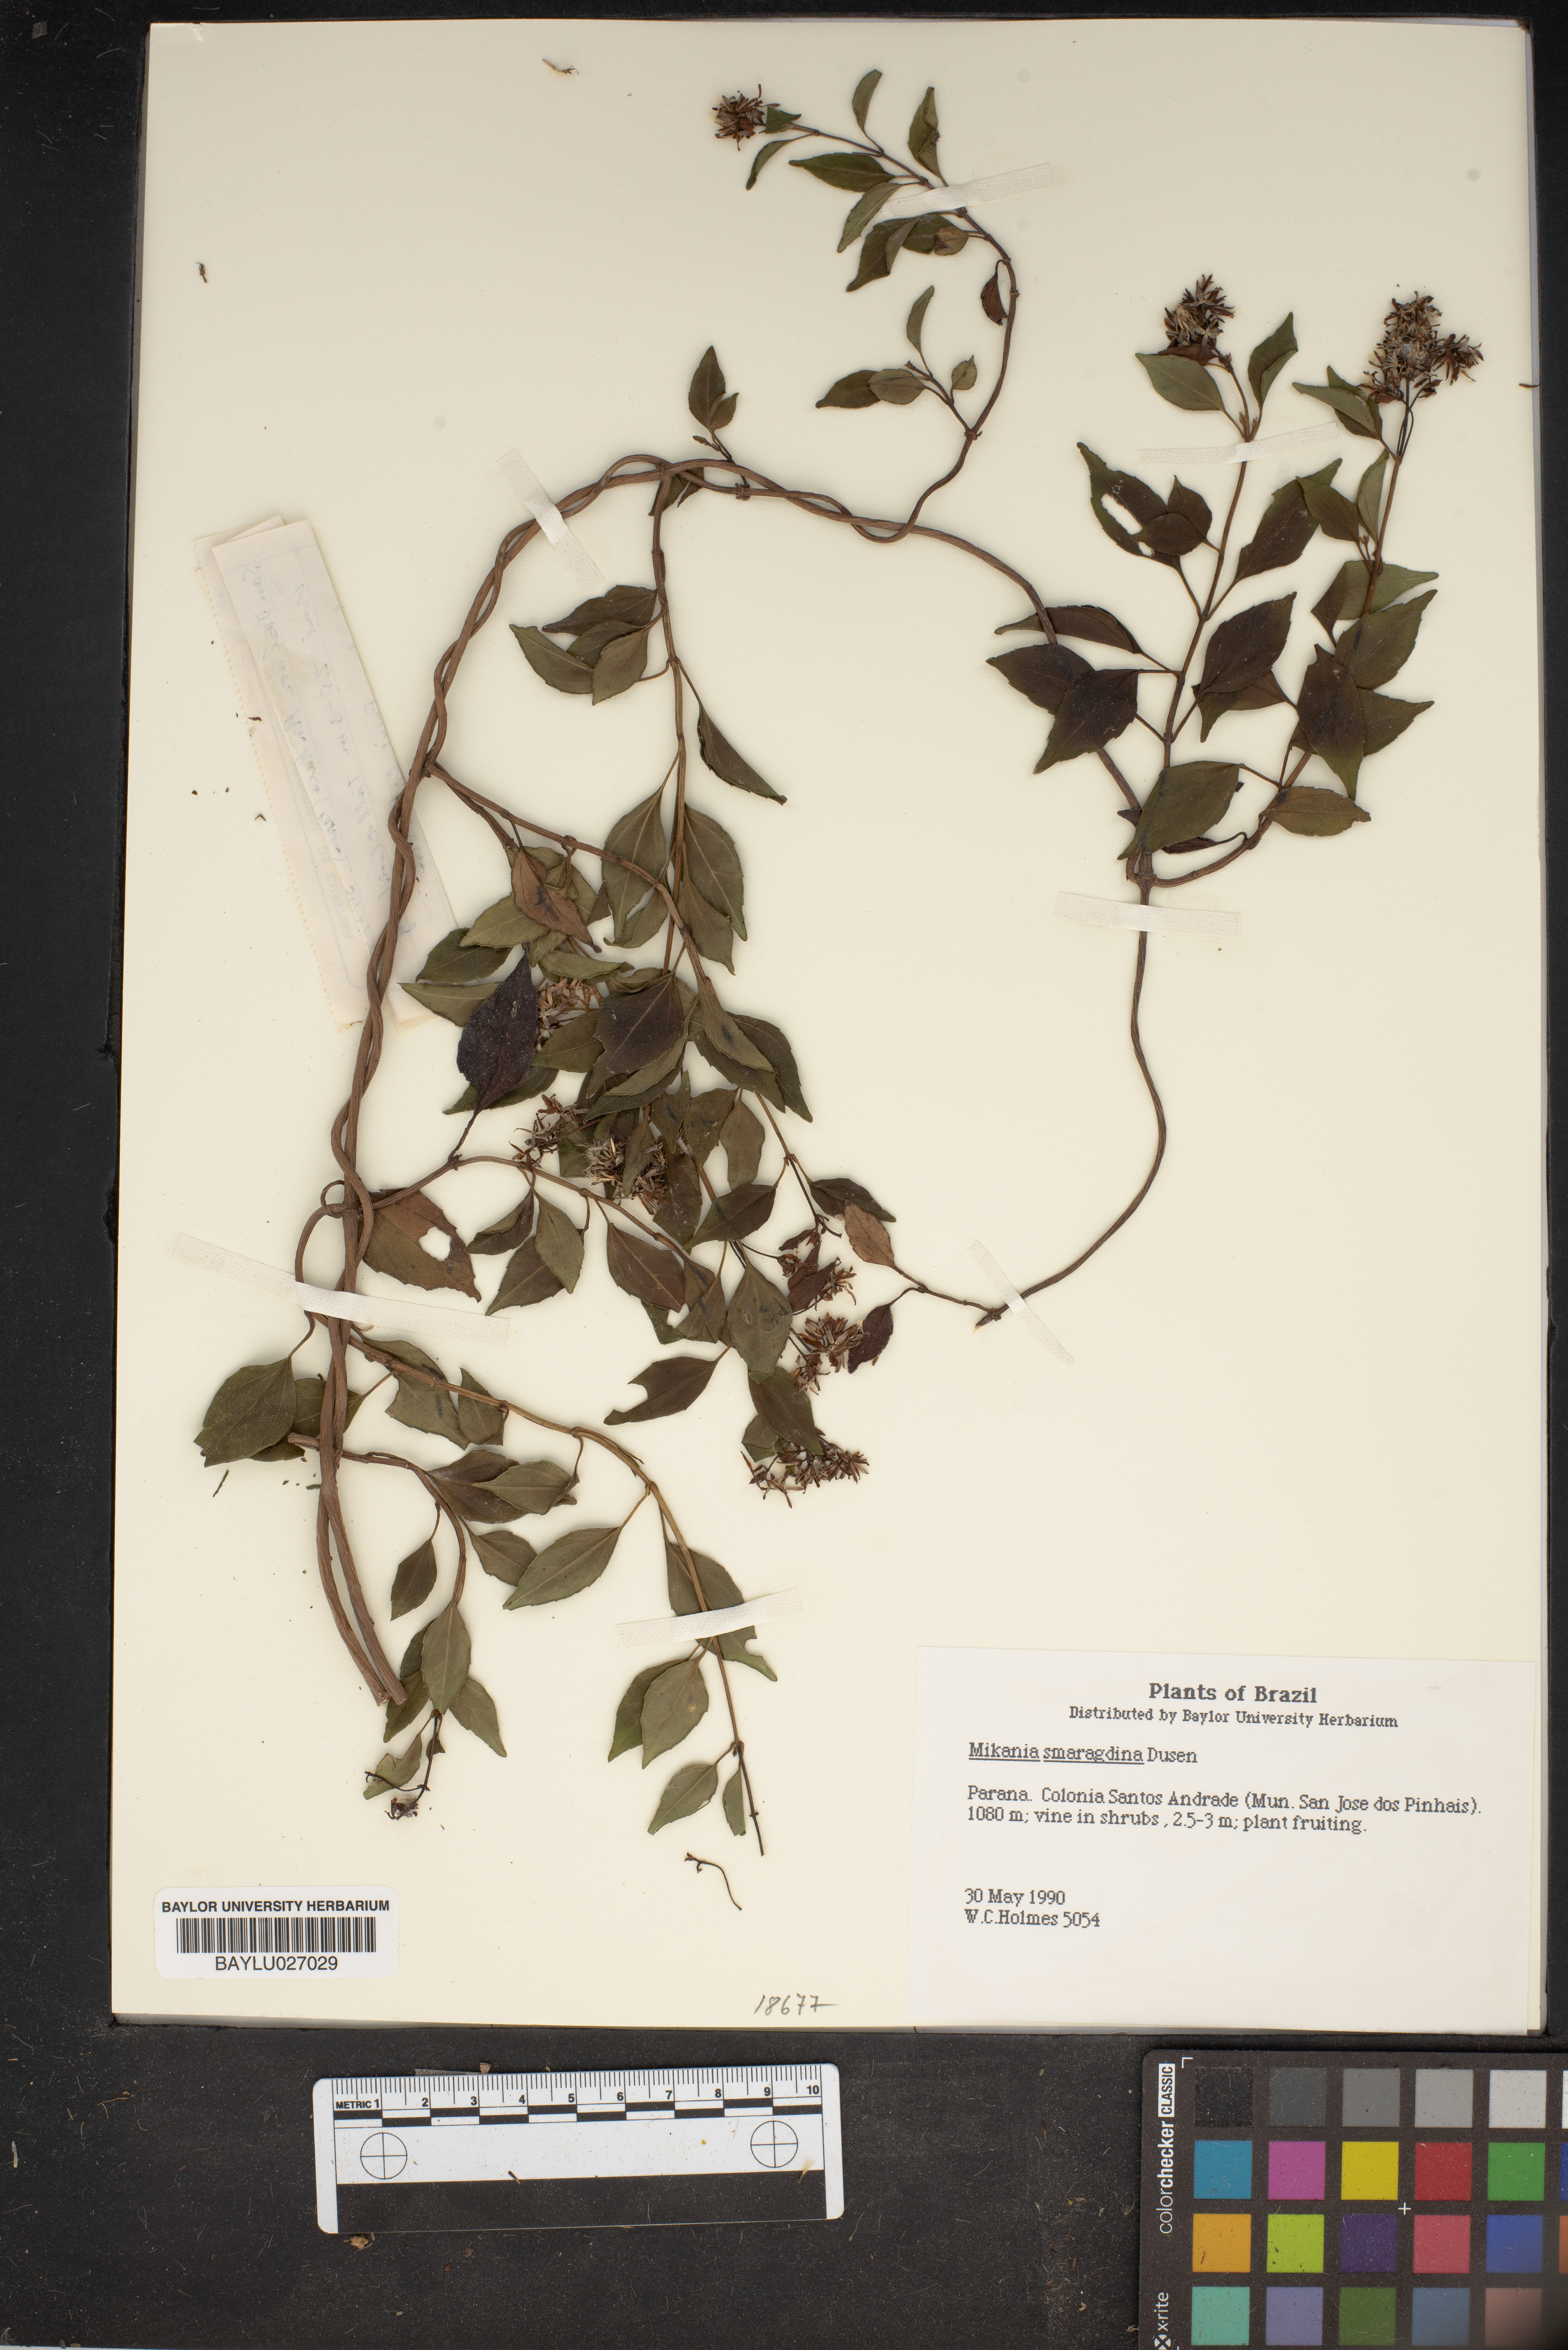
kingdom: Plantae
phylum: Tracheophyta
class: Magnoliopsida
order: Asterales
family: Asteraceae
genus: Mikania
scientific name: Mikania smaragdina
